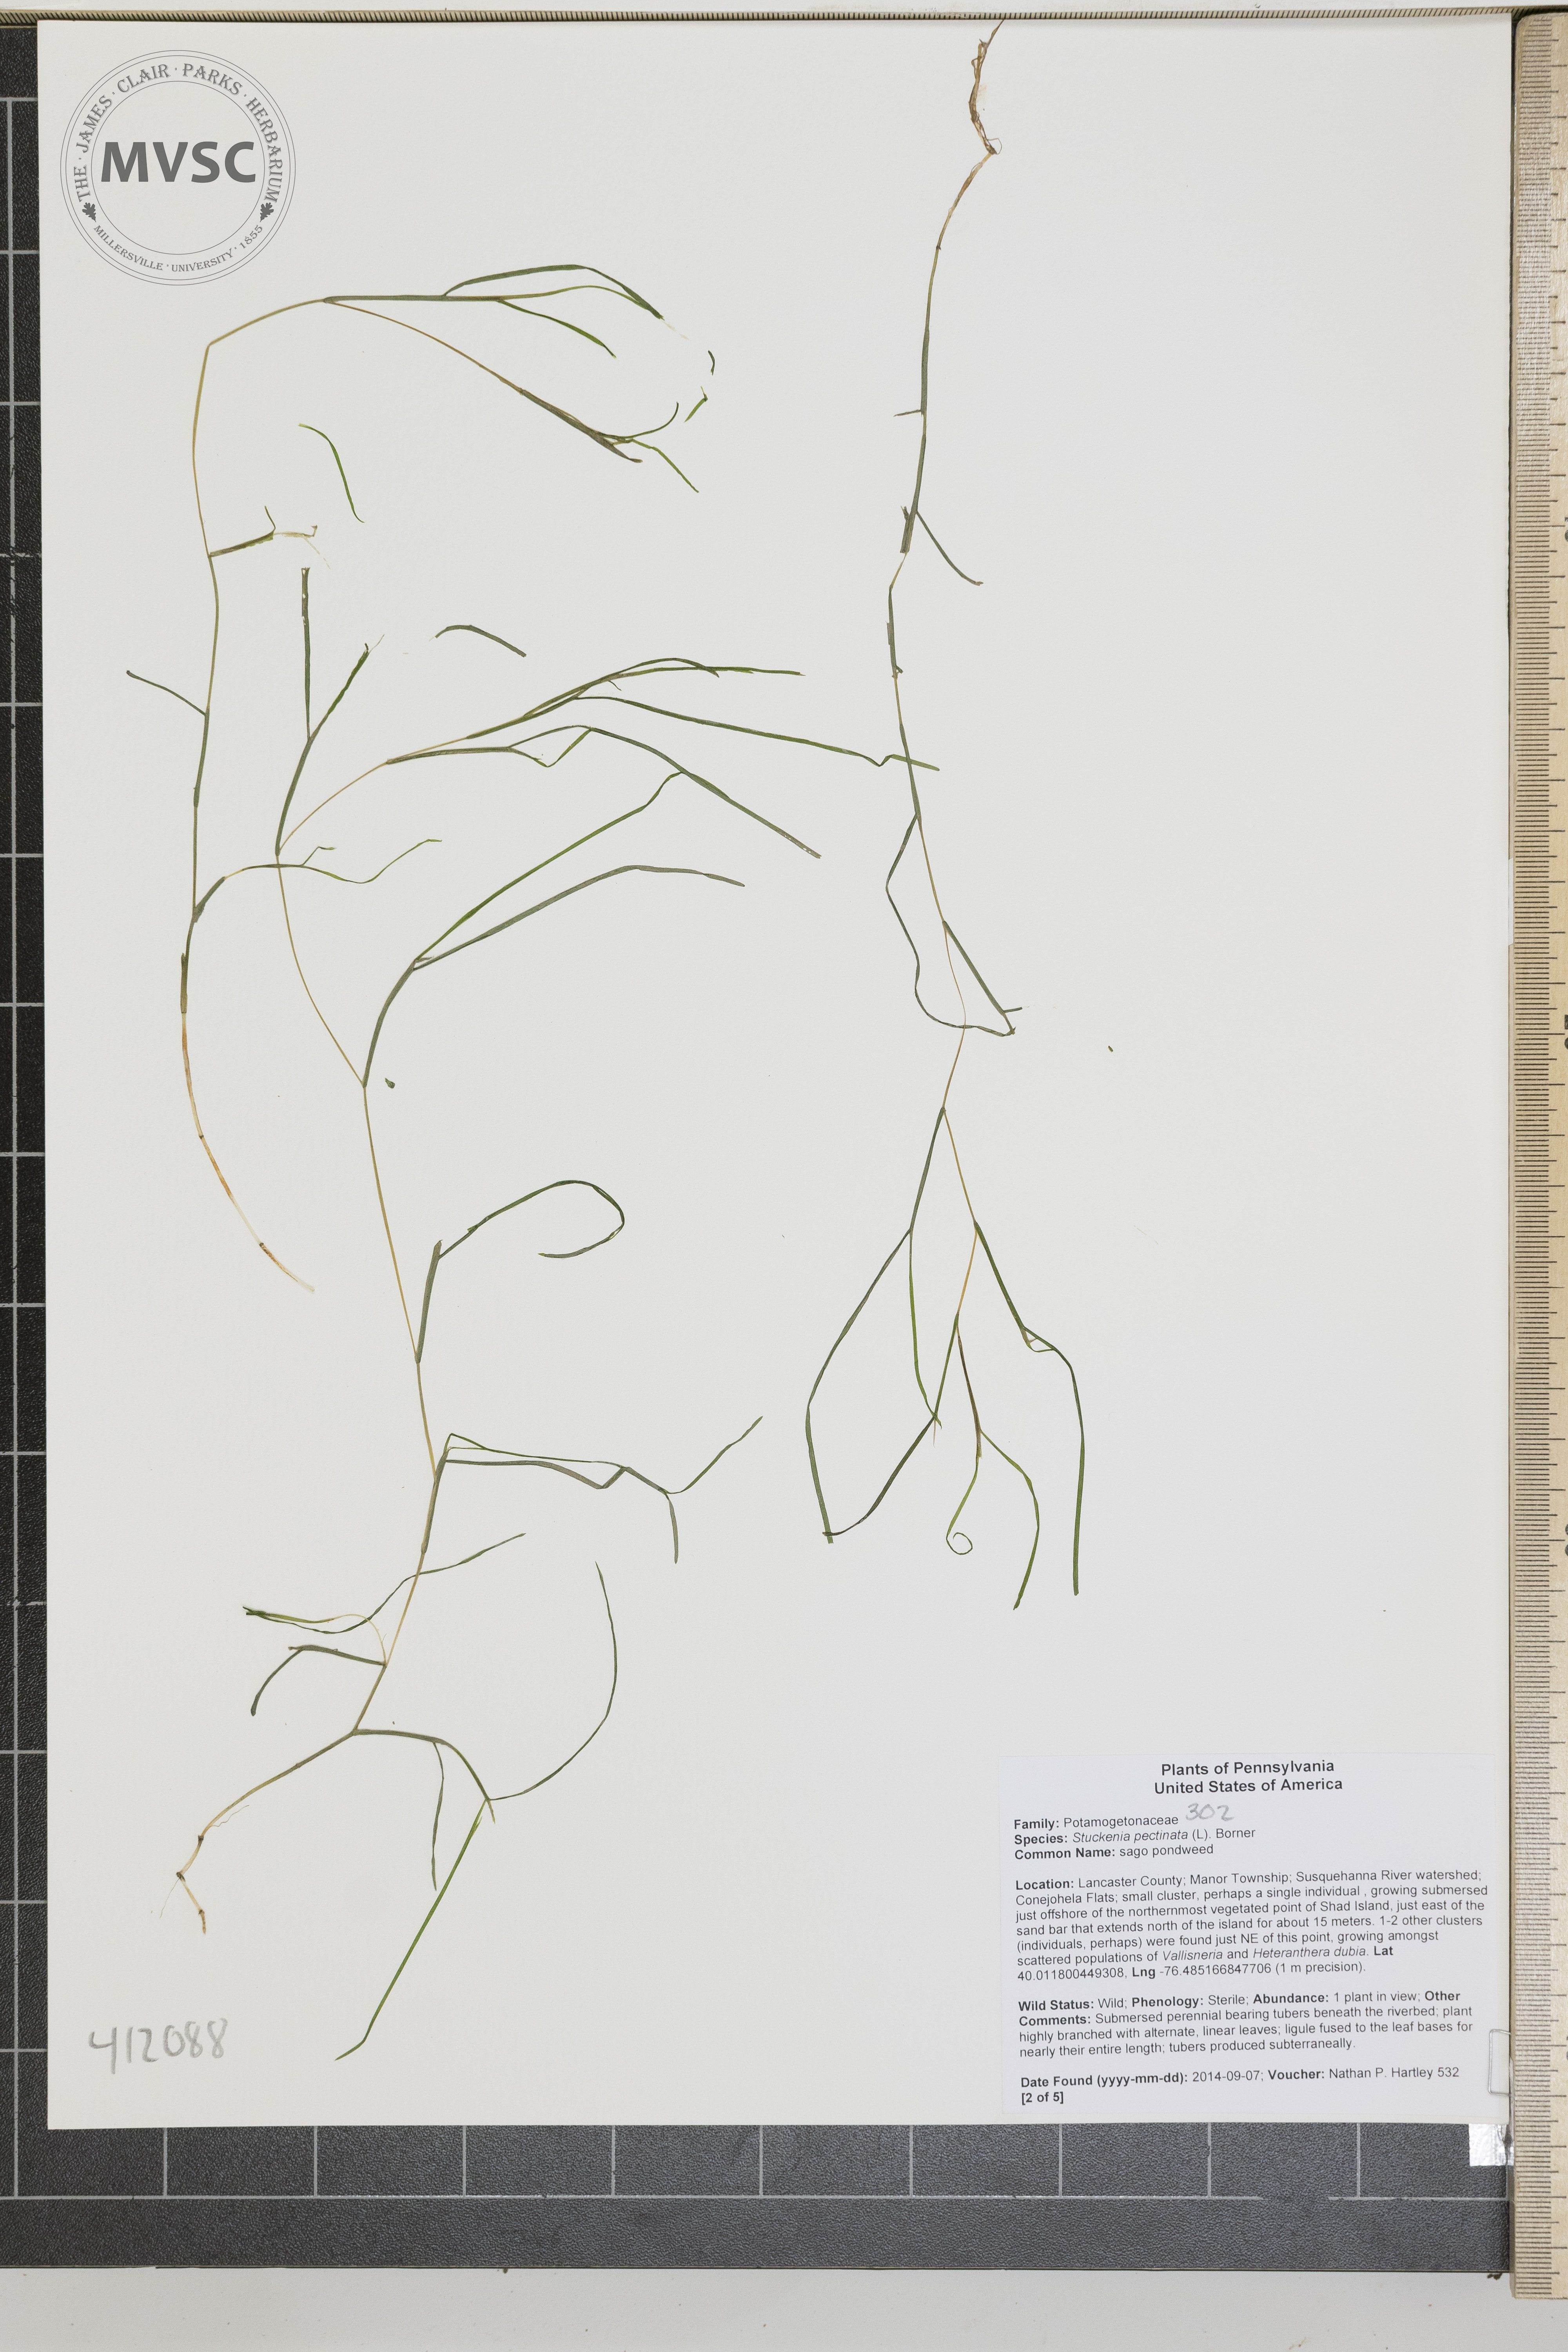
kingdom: Plantae
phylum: Tracheophyta
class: Liliopsida
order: Alismatales
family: Potamogetonaceae
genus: Stuckenia
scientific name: Stuckenia pectinata
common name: Sago pondweed
